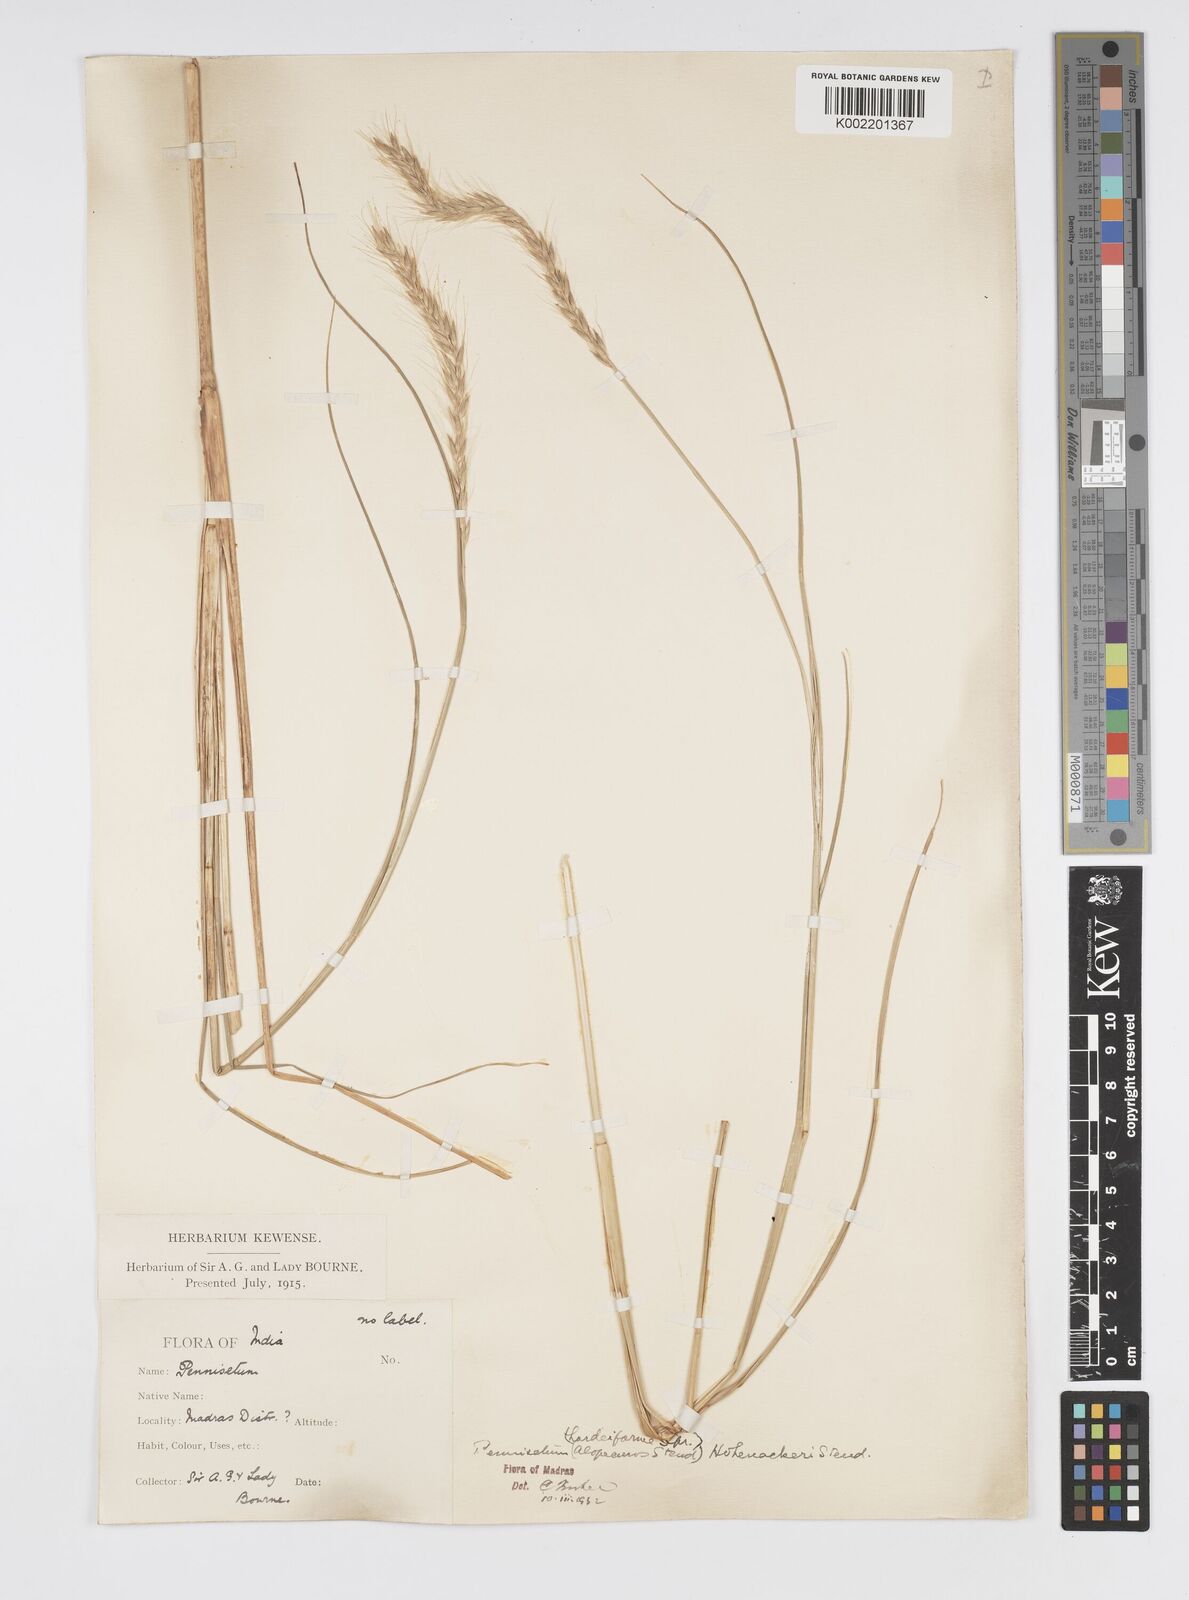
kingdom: Plantae
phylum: Tracheophyta
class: Liliopsida
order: Poales
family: Poaceae
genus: Cenchrus
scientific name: Cenchrus hohenackeri
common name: Moya grass
